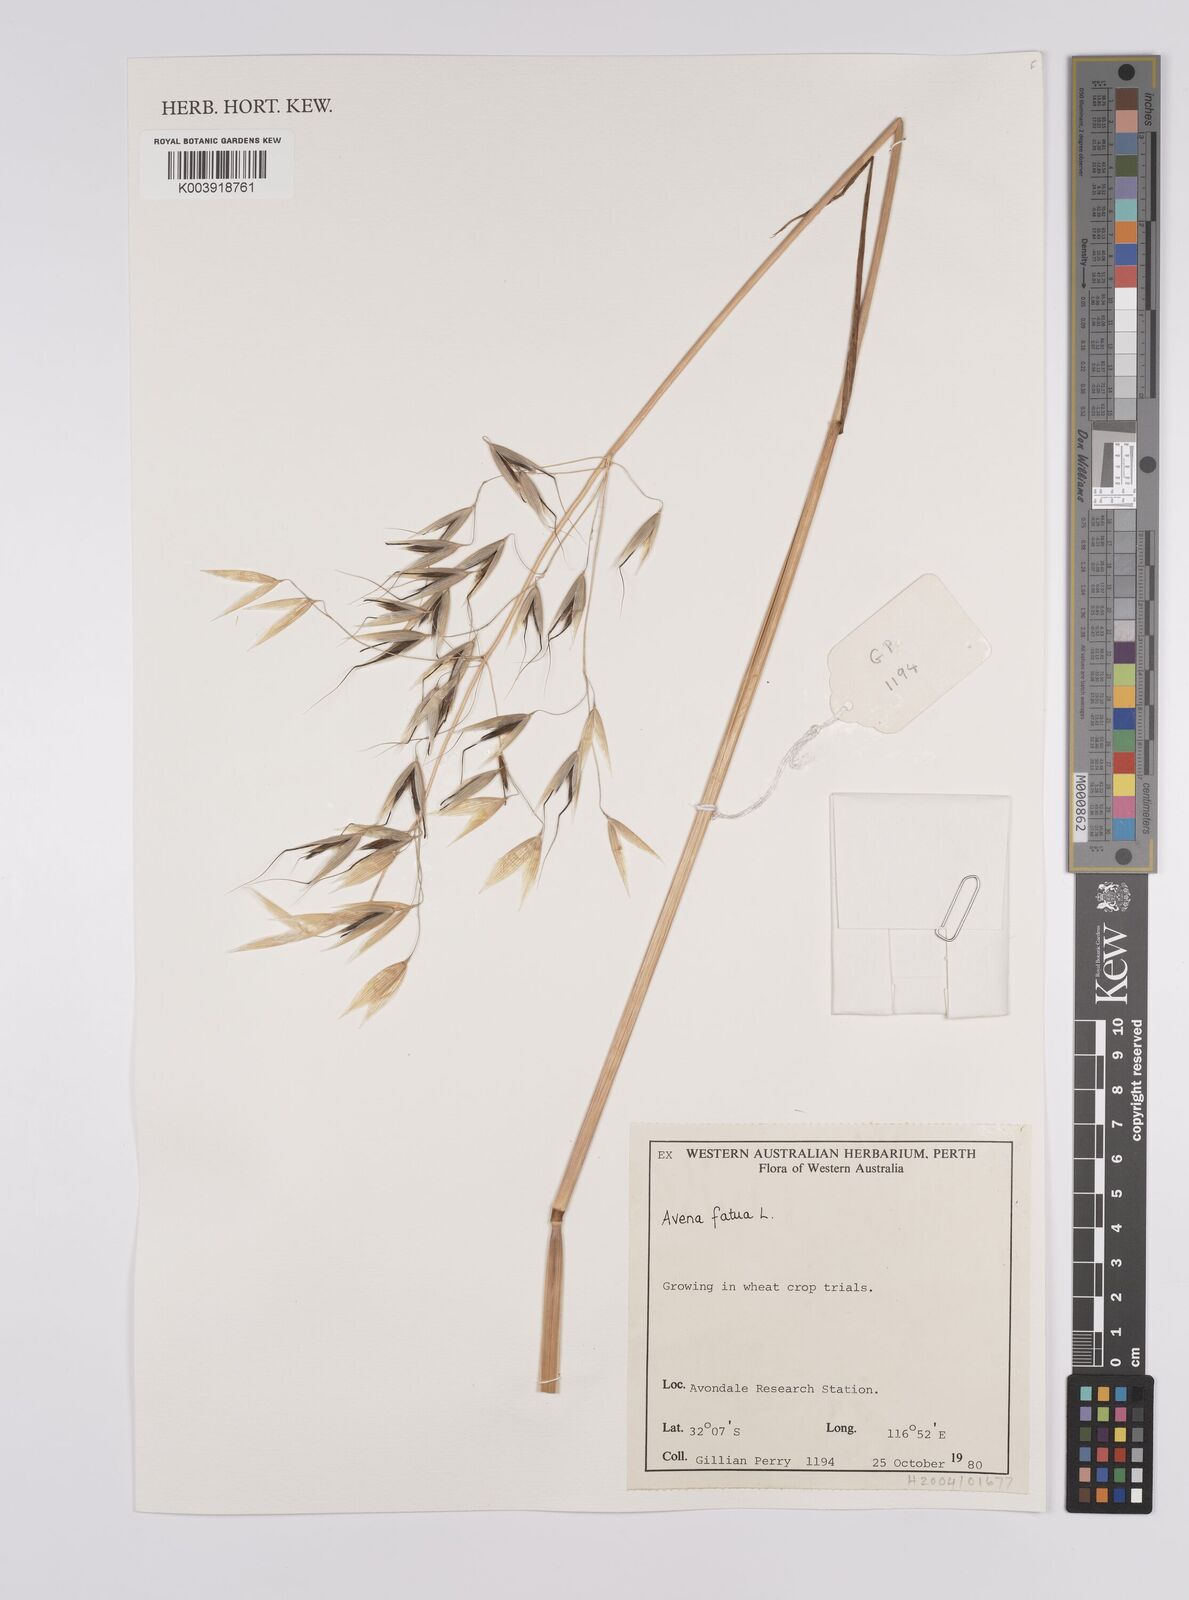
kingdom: Plantae
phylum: Tracheophyta
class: Liliopsida
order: Poales
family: Poaceae
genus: Avena
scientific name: Avena fatua
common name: Wild oat
